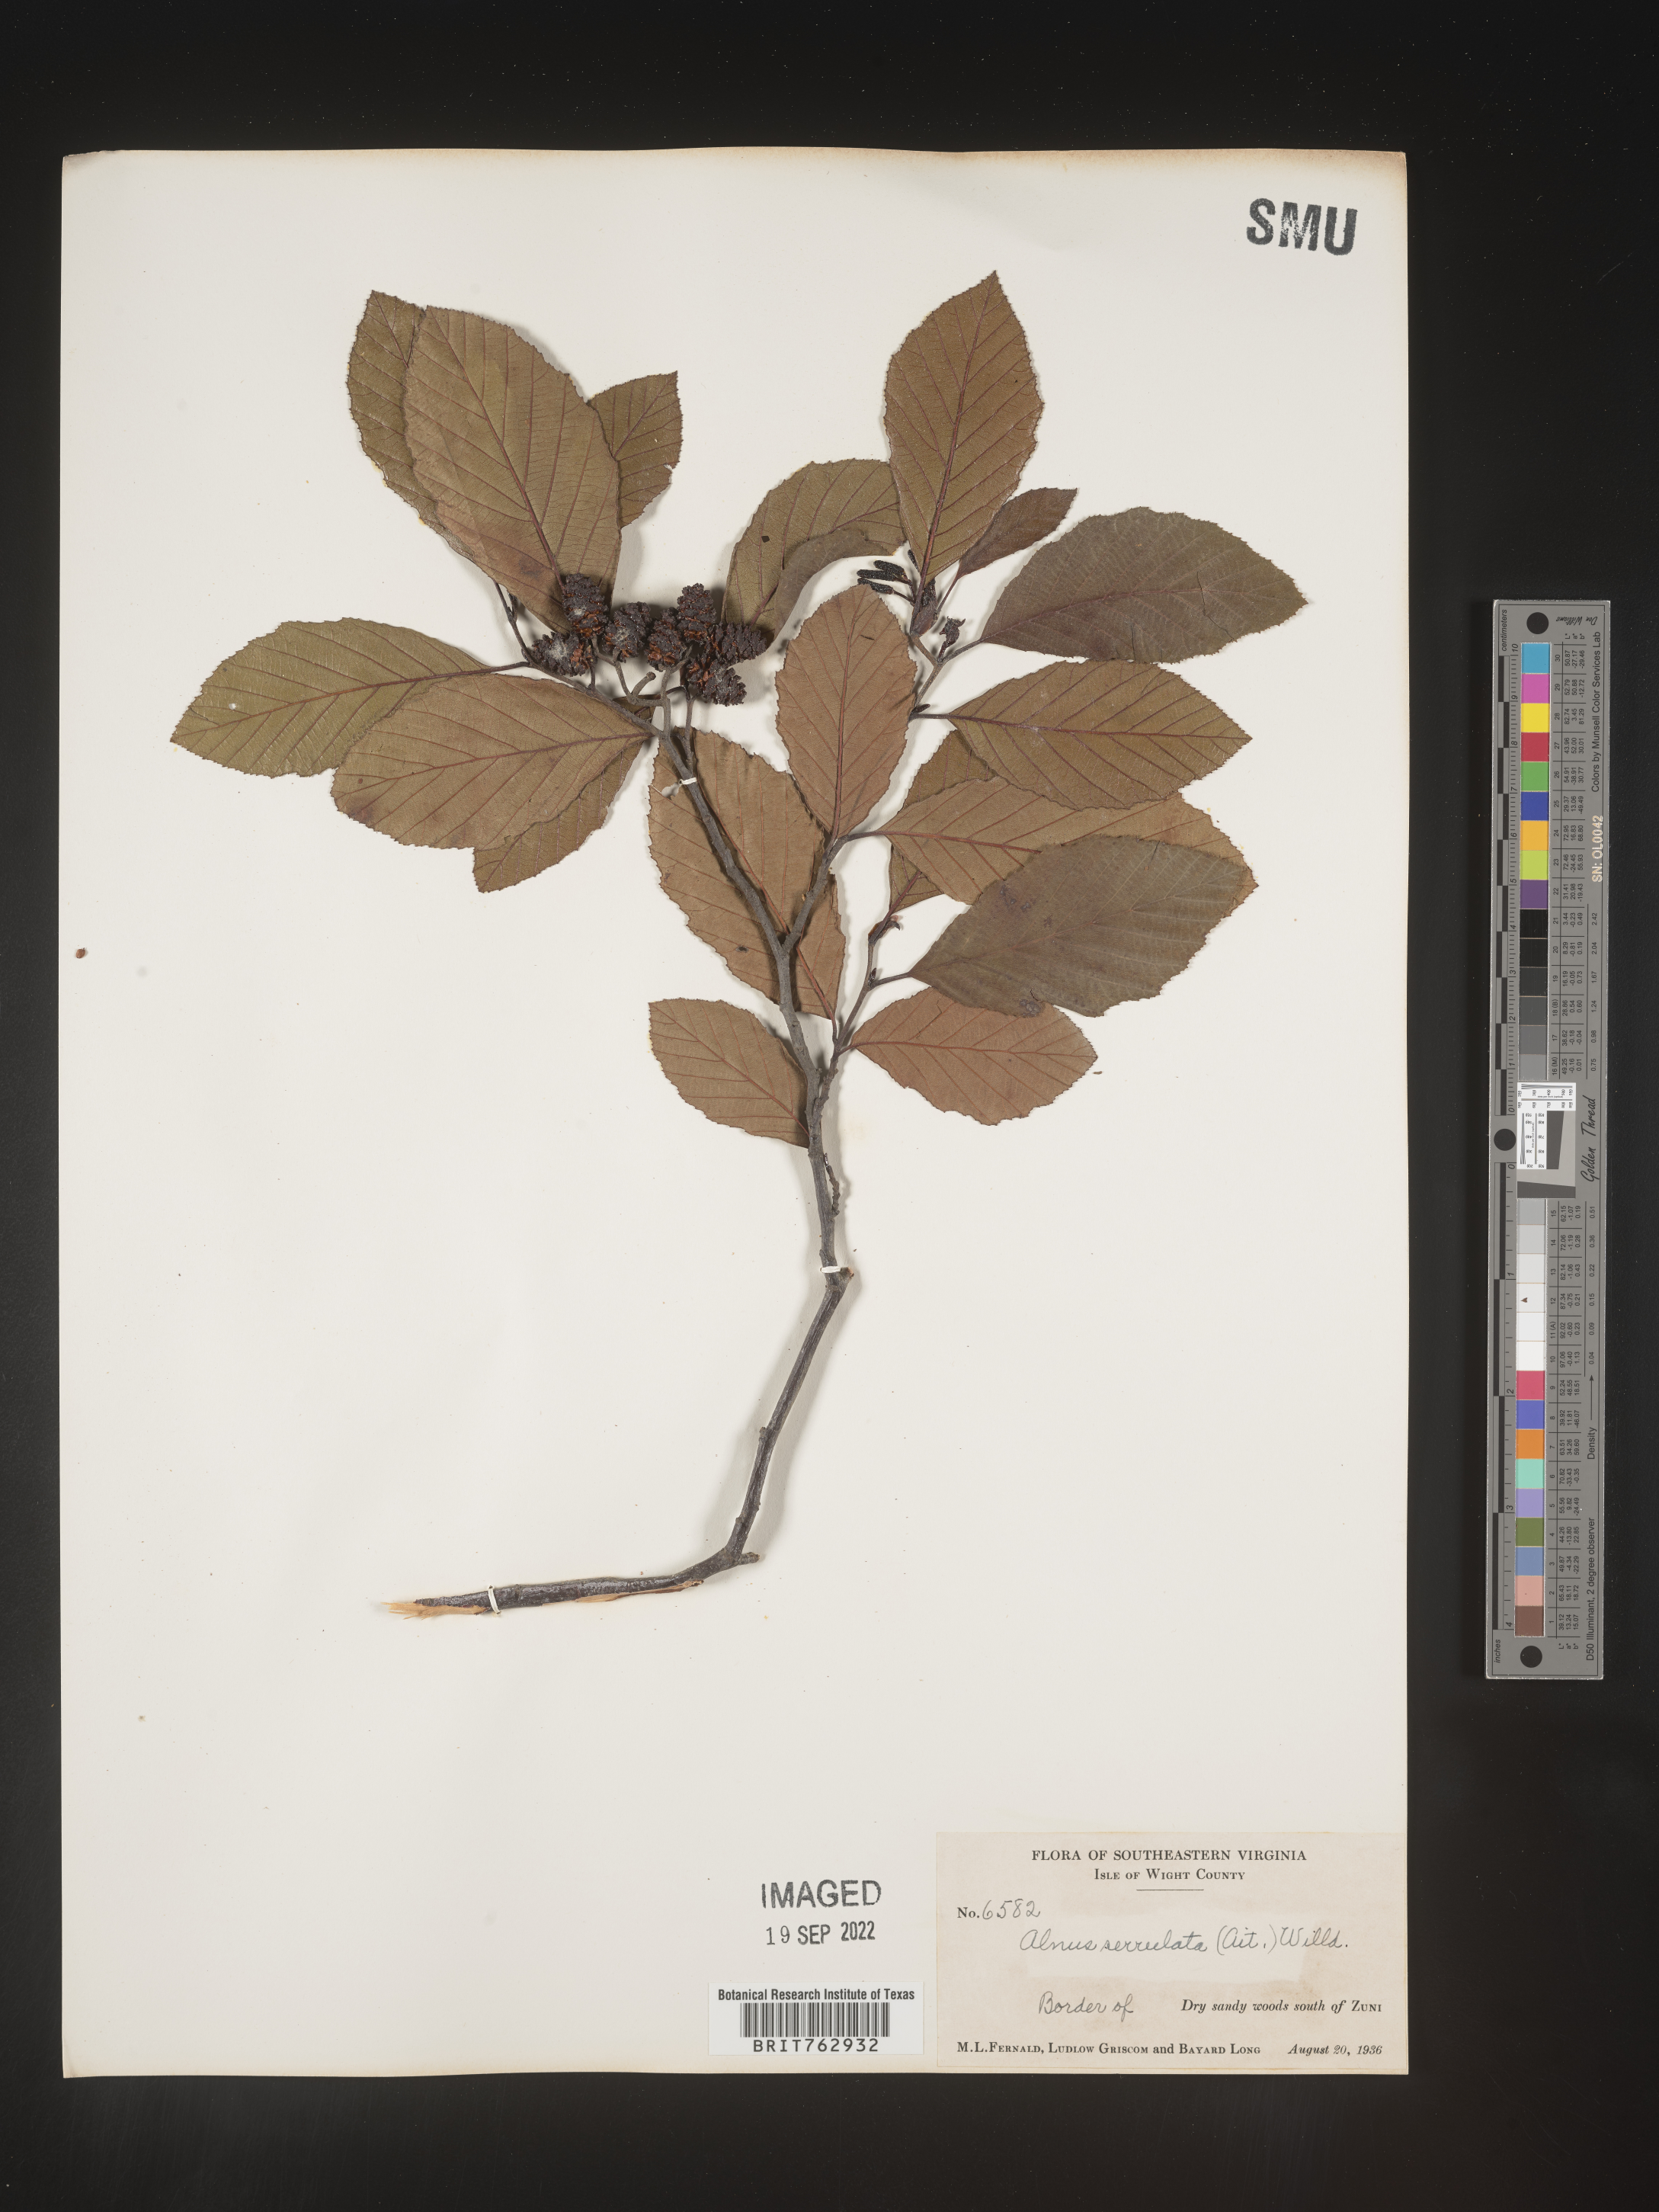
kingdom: Plantae
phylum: Tracheophyta
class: Magnoliopsida
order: Fagales
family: Betulaceae
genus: Alnus
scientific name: Alnus serrulata
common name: Hazel alder
